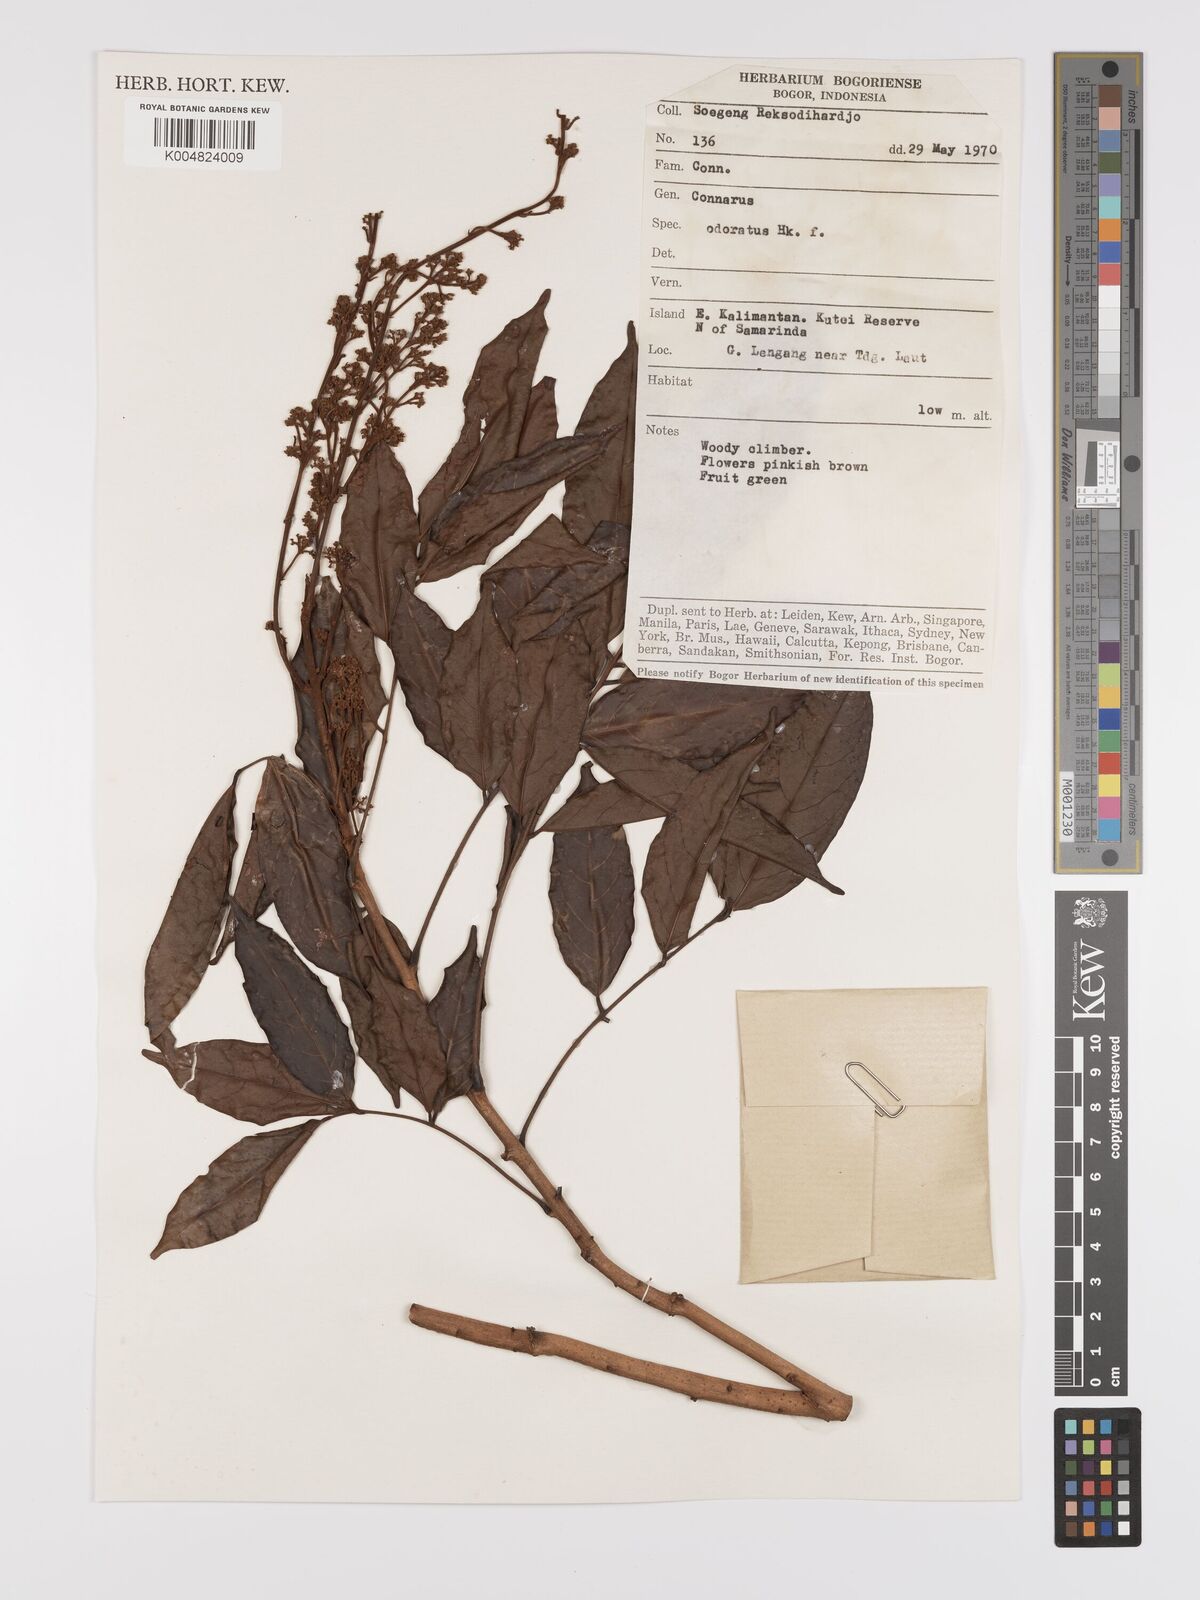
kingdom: Plantae
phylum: Tracheophyta
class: Magnoliopsida
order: Oxalidales
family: Connaraceae
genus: Connarus
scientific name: Connarus odoratus
